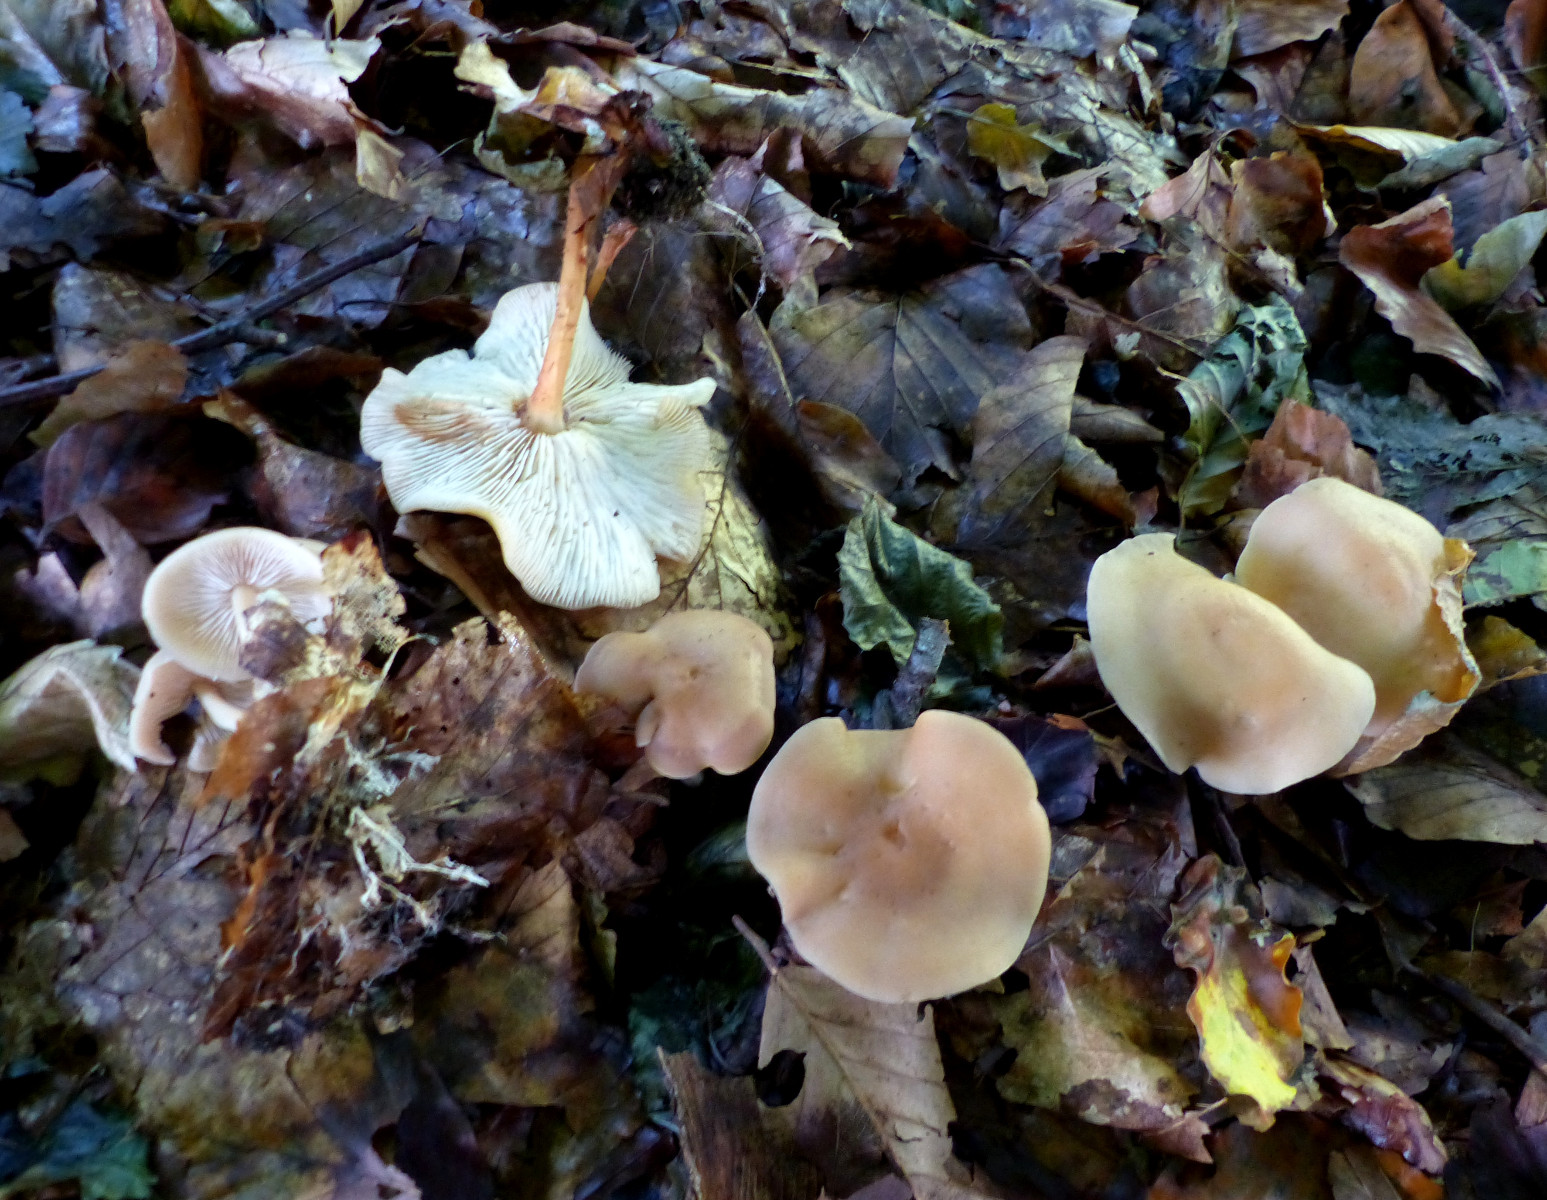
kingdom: Fungi
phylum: Basidiomycota
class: Agaricomycetes
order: Agaricales
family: Omphalotaceae
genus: Gymnopus
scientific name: Gymnopus dryophilus
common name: løv-fladhat
